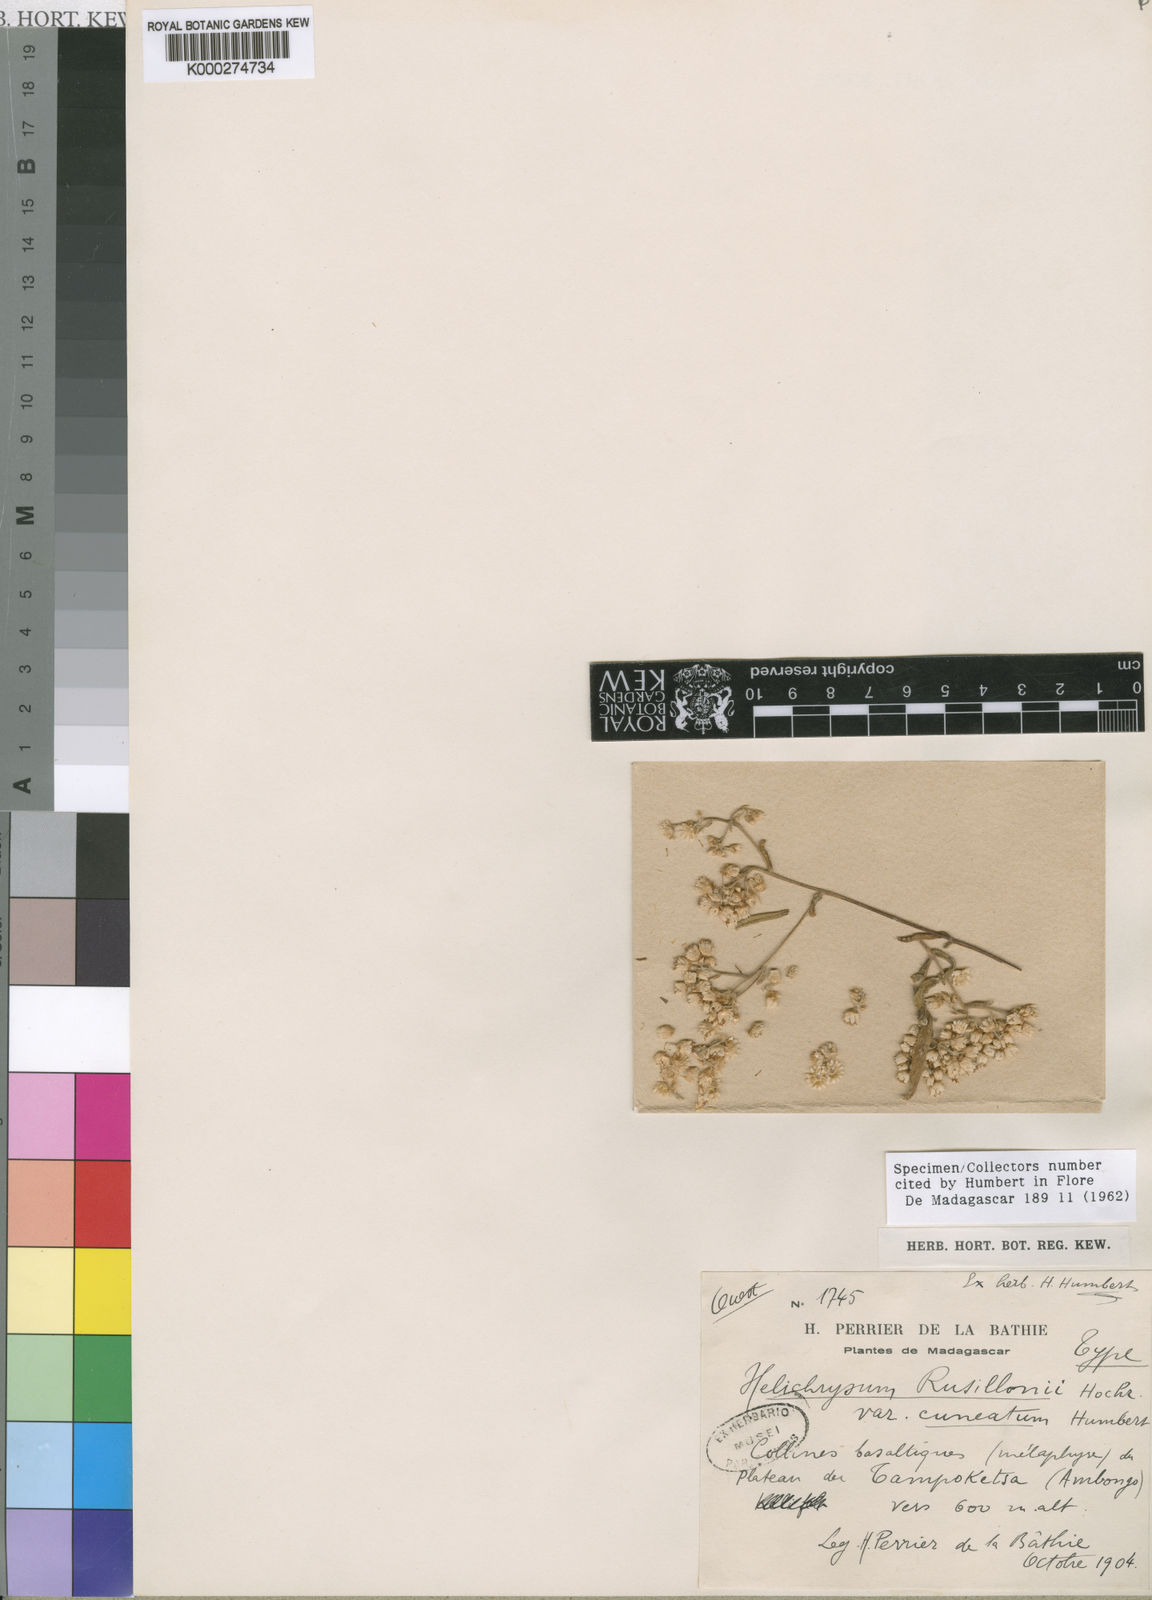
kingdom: Plantae
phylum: Tracheophyta
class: Magnoliopsida
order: Asterales
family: Asteraceae
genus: Helichrysum
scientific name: Helichrysum faradifani
